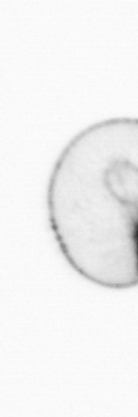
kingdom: Chromista
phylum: Myzozoa
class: Dinophyceae
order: Noctilucales
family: Noctilucaceae
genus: Noctiluca
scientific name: Noctiluca scintillans
